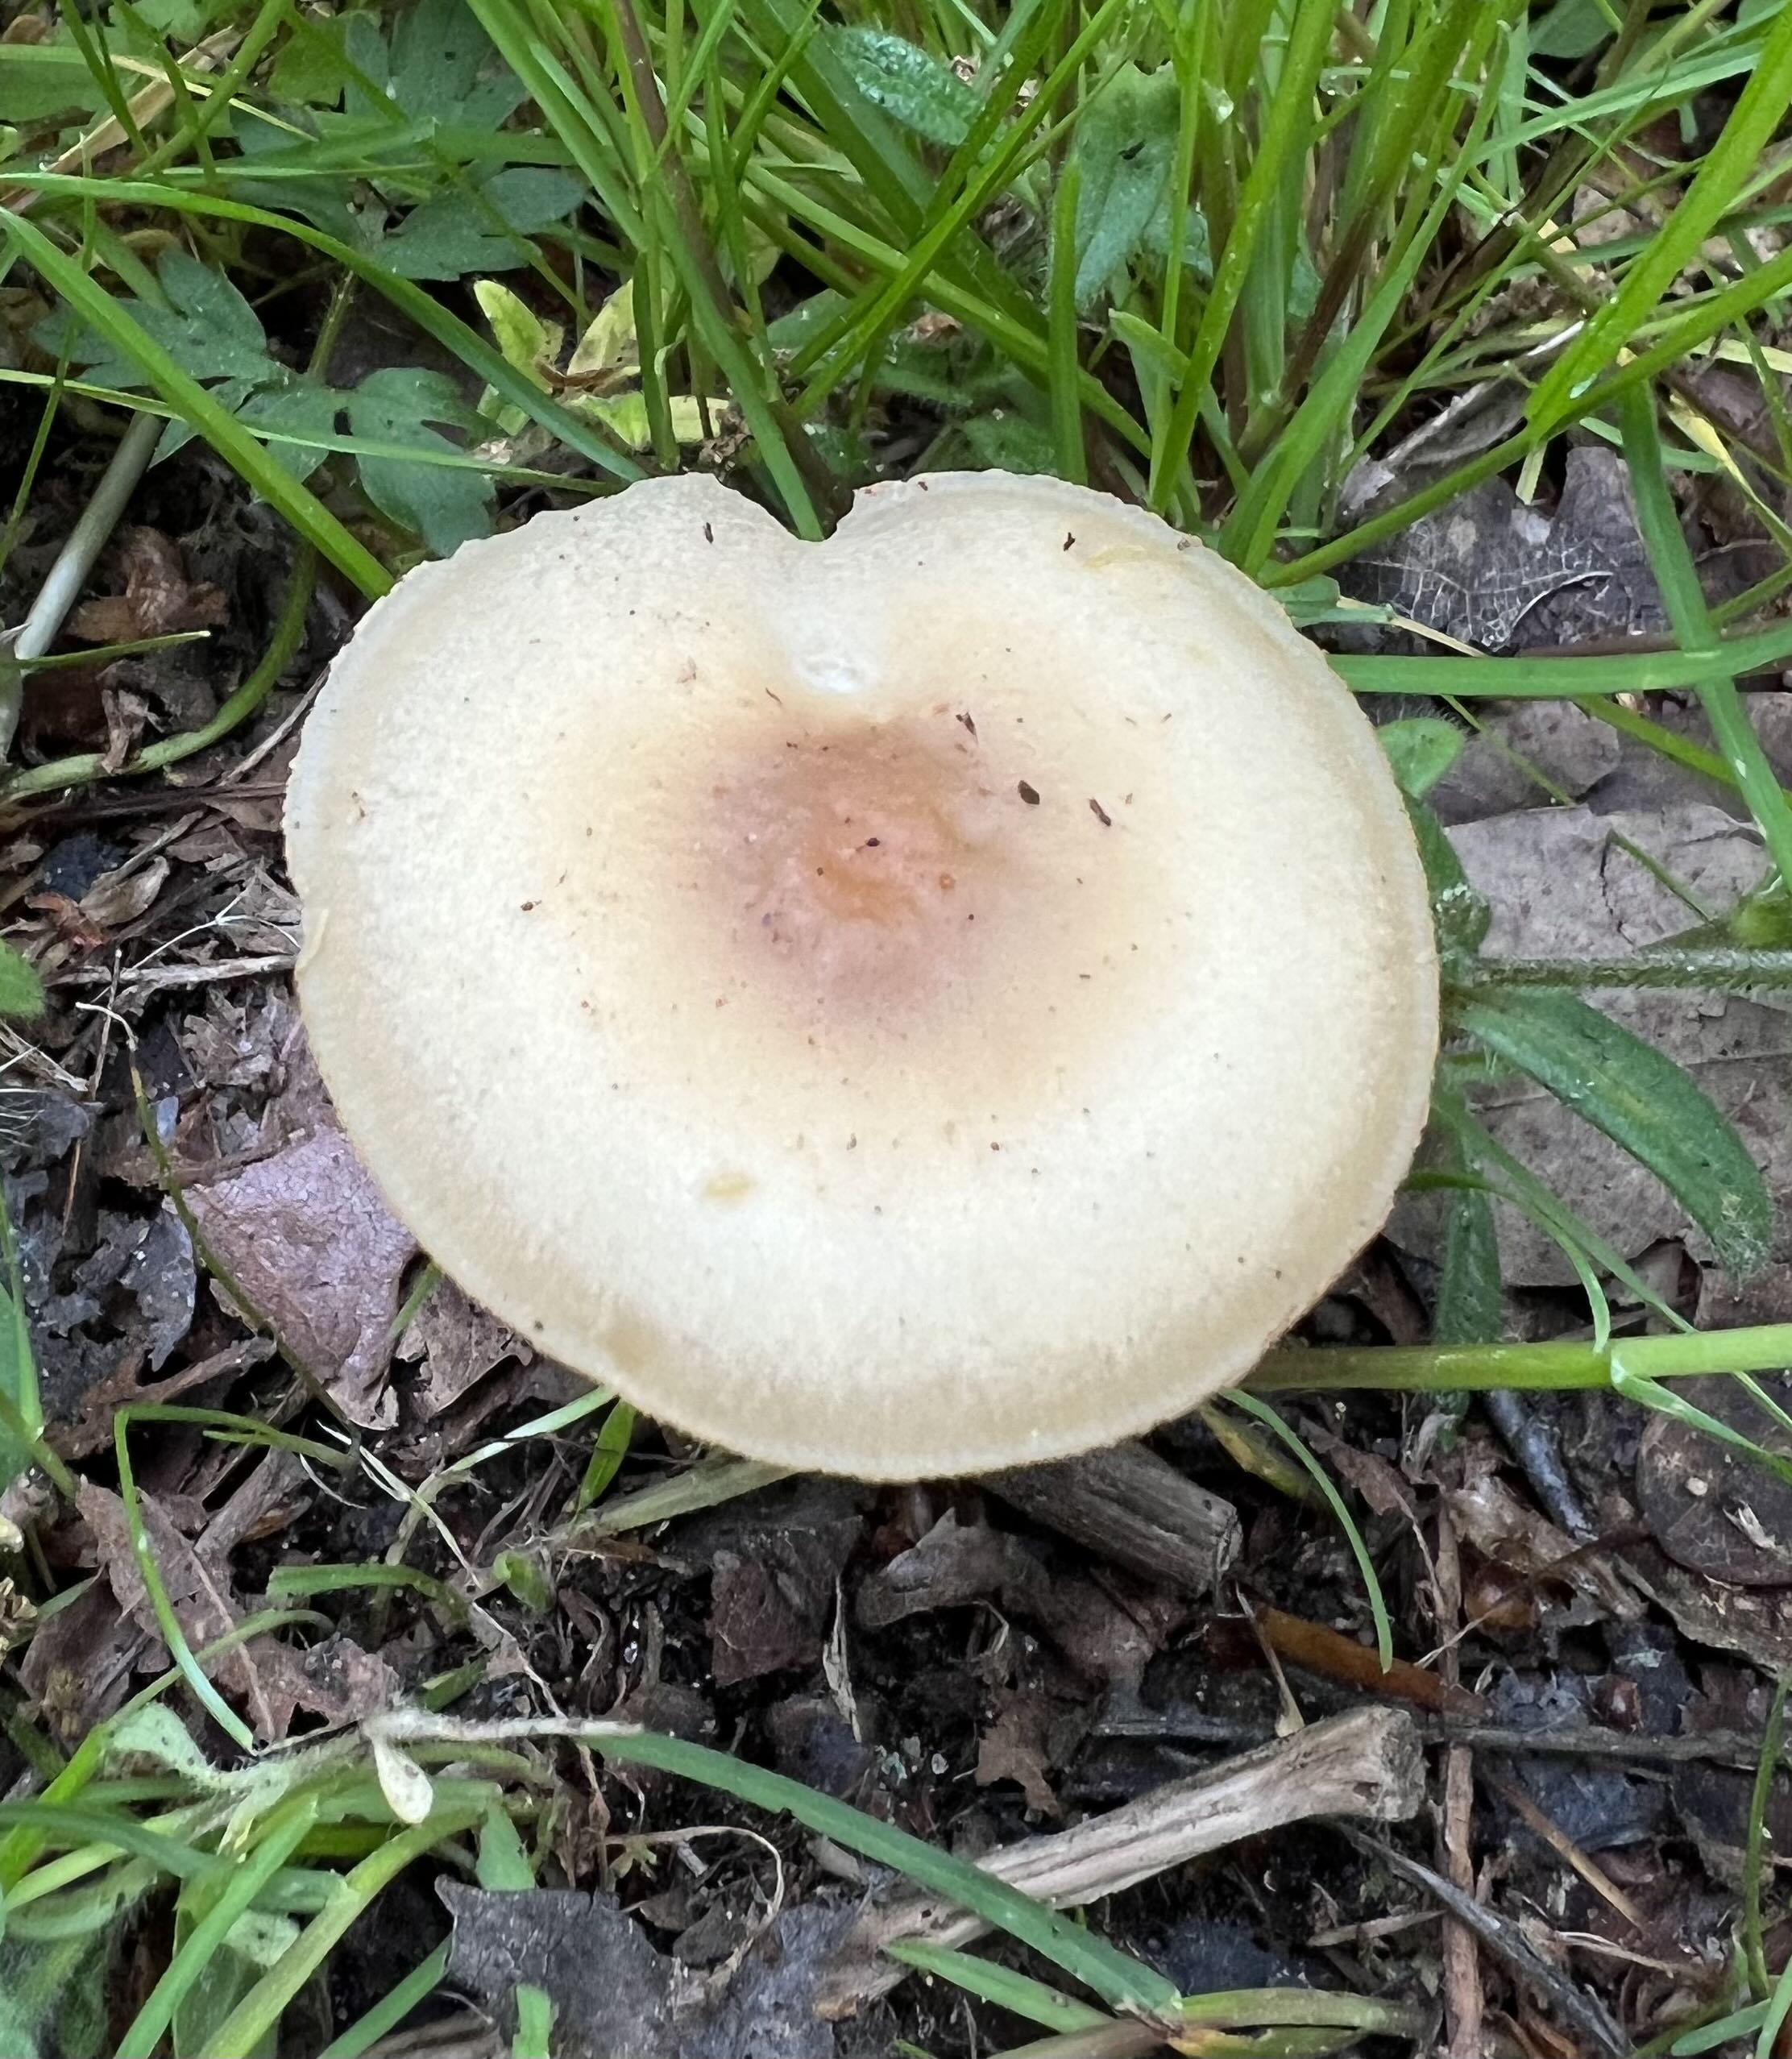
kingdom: Fungi
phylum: Basidiomycota
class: Agaricomycetes
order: Agaricales
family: Strophariaceae
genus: Agrocybe
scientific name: Agrocybe
